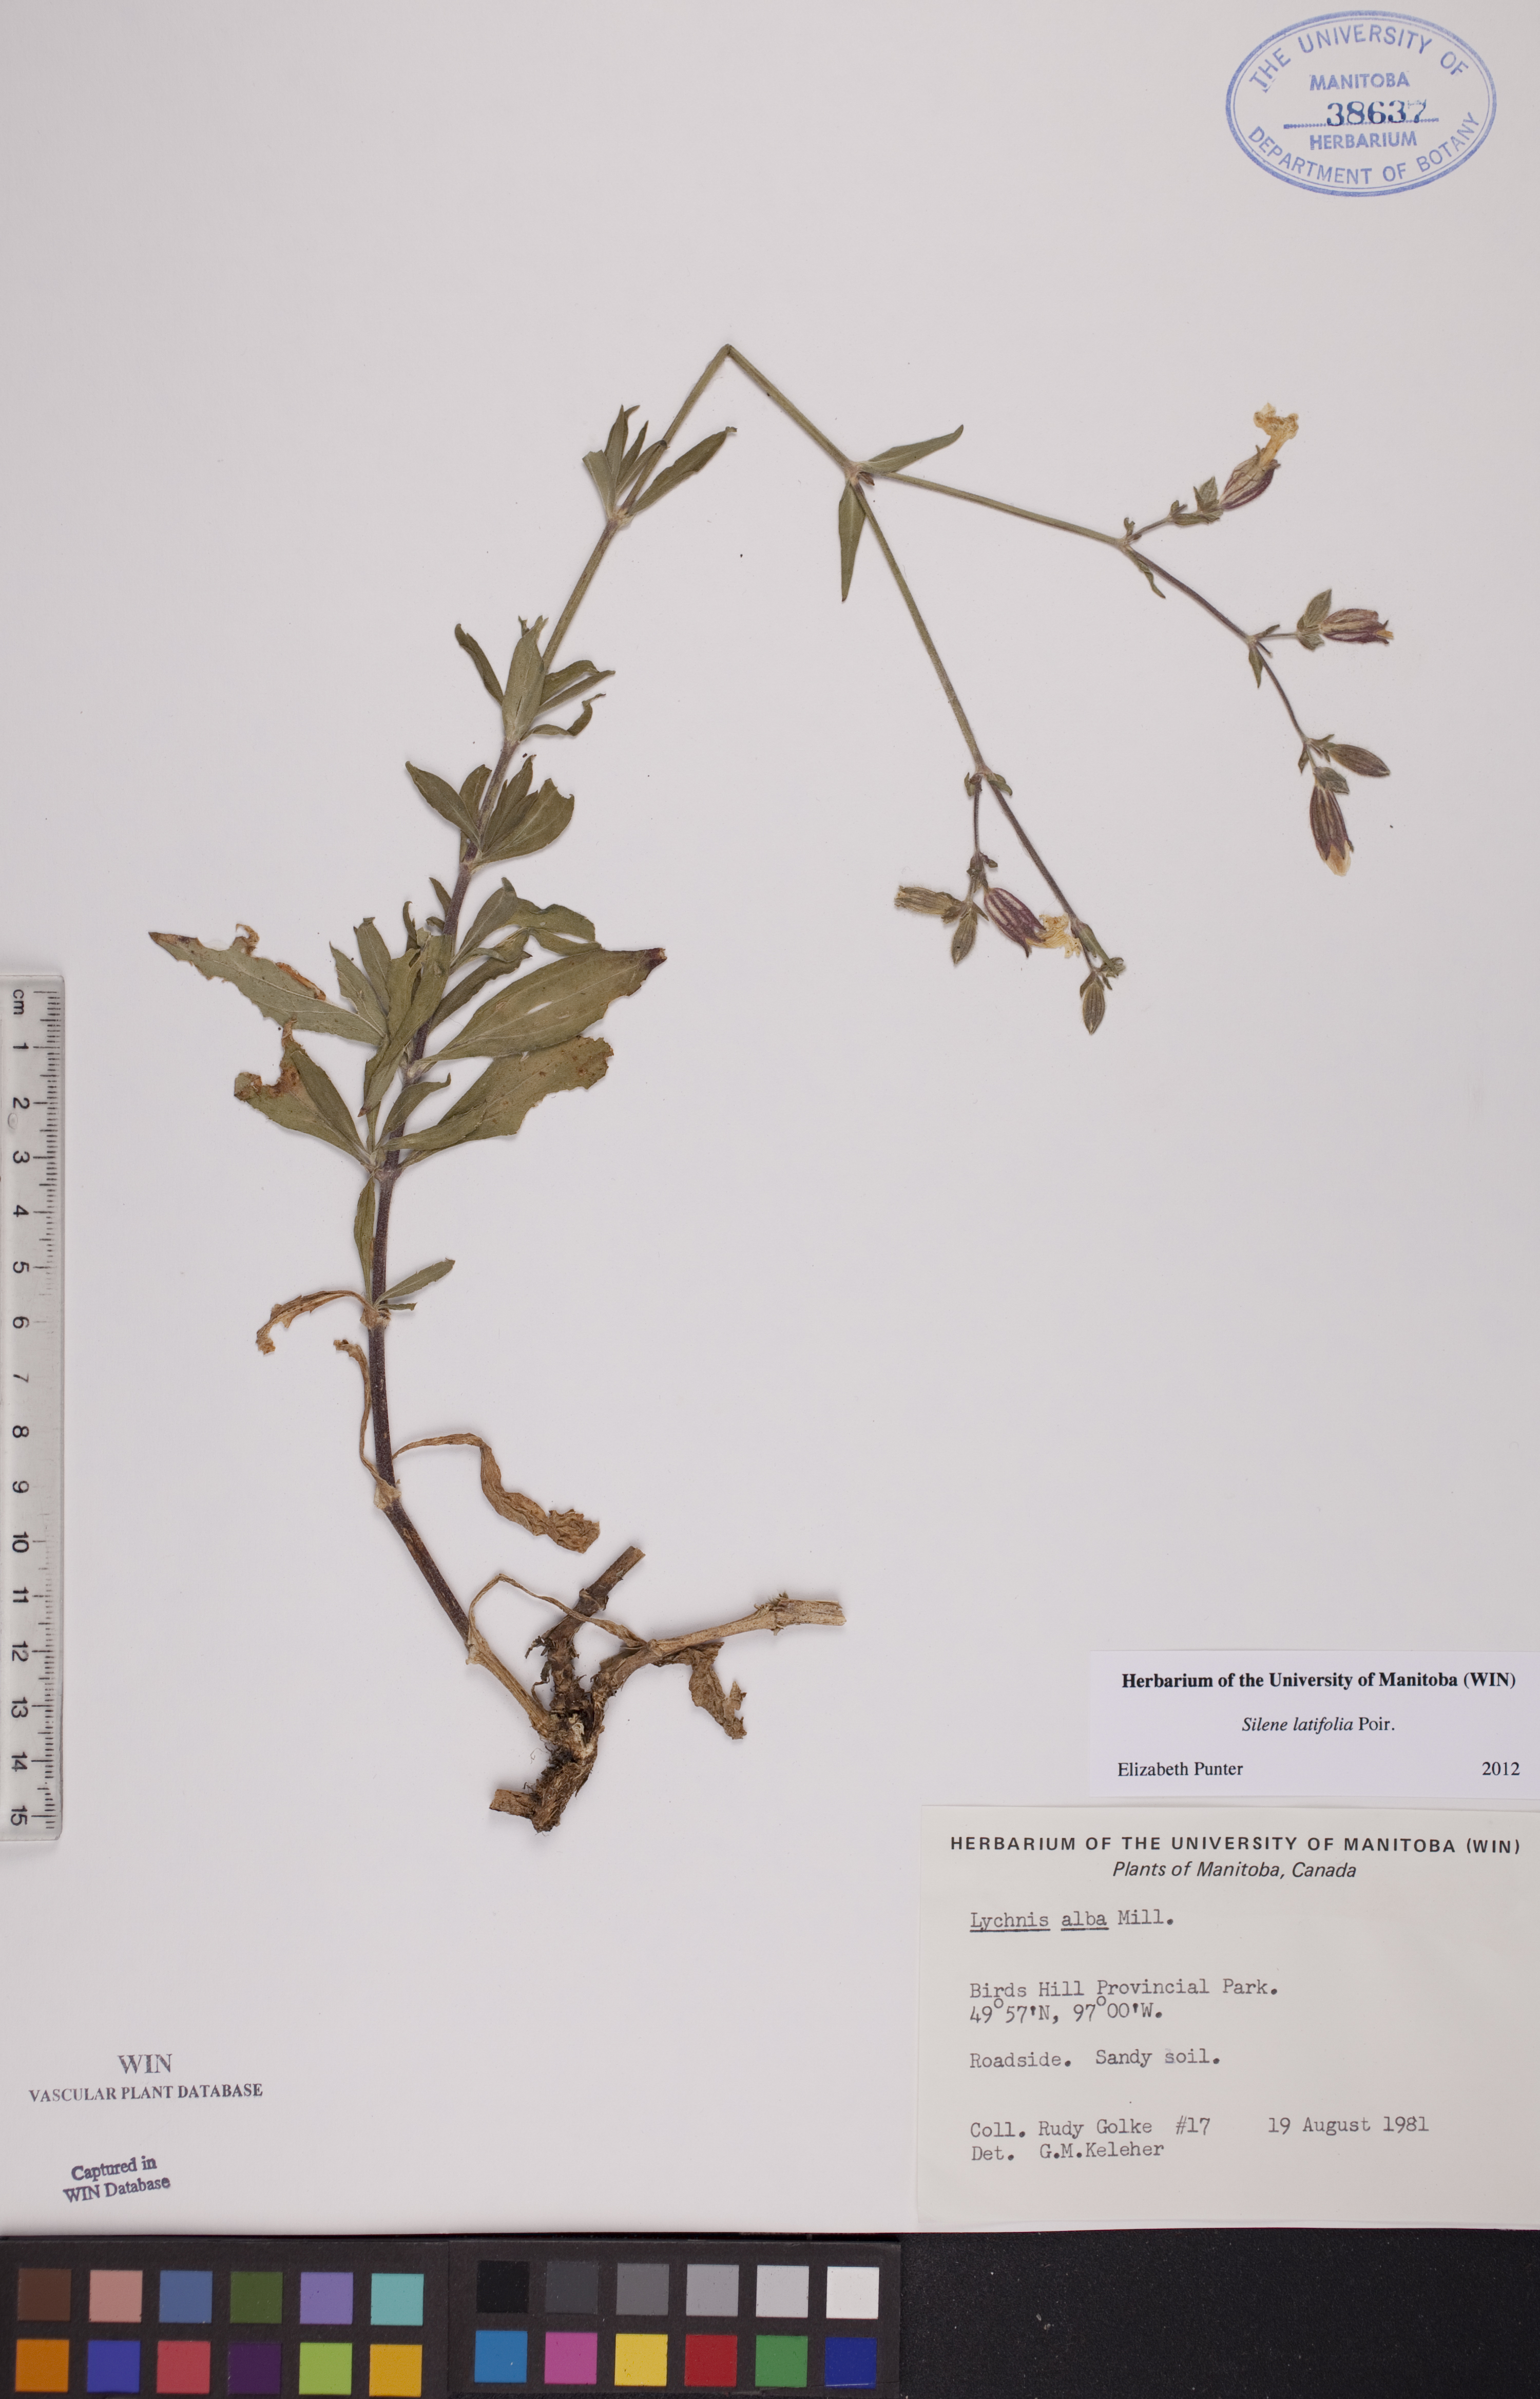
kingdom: Plantae
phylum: Tracheophyta
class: Magnoliopsida
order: Caryophyllales
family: Caryophyllaceae
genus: Silene
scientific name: Silene latifolia
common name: White campion
